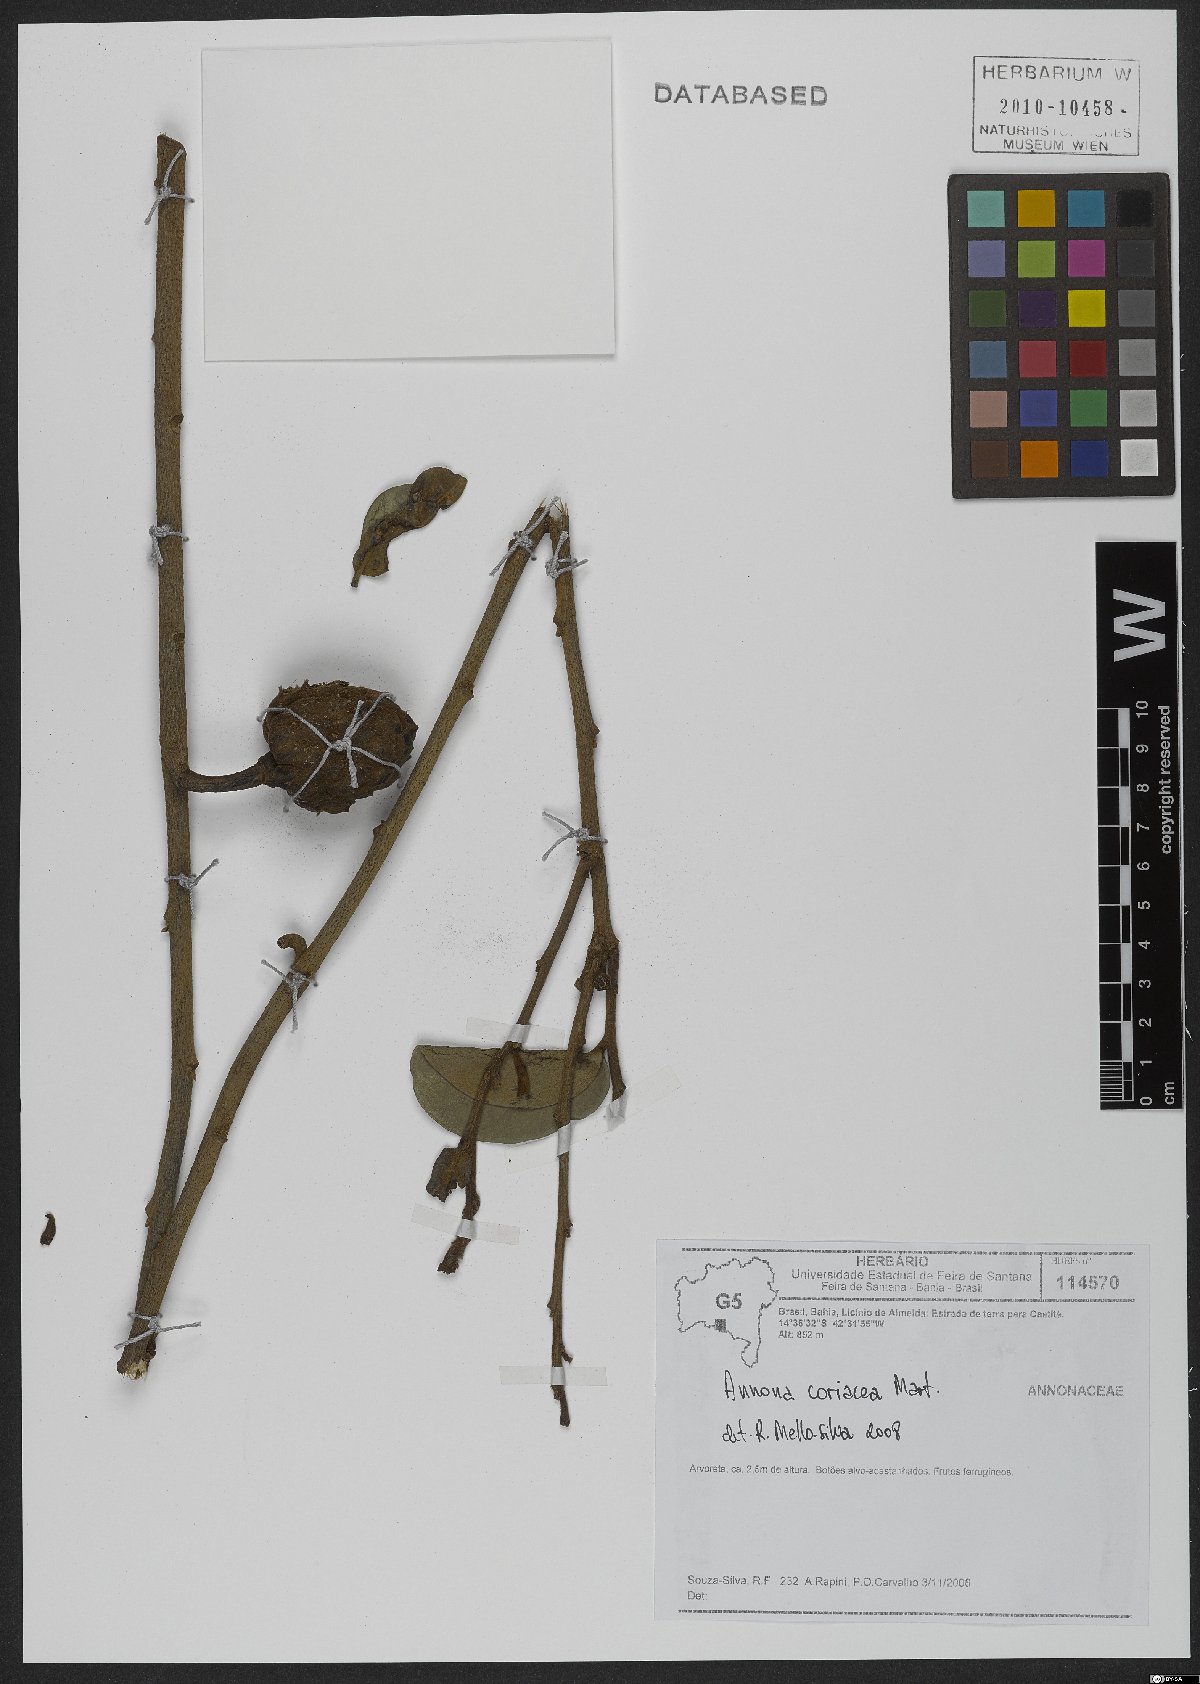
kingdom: Plantae
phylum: Tracheophyta
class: Magnoliopsida
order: Magnoliales
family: Annonaceae
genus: Annona
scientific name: Annona coriacea
